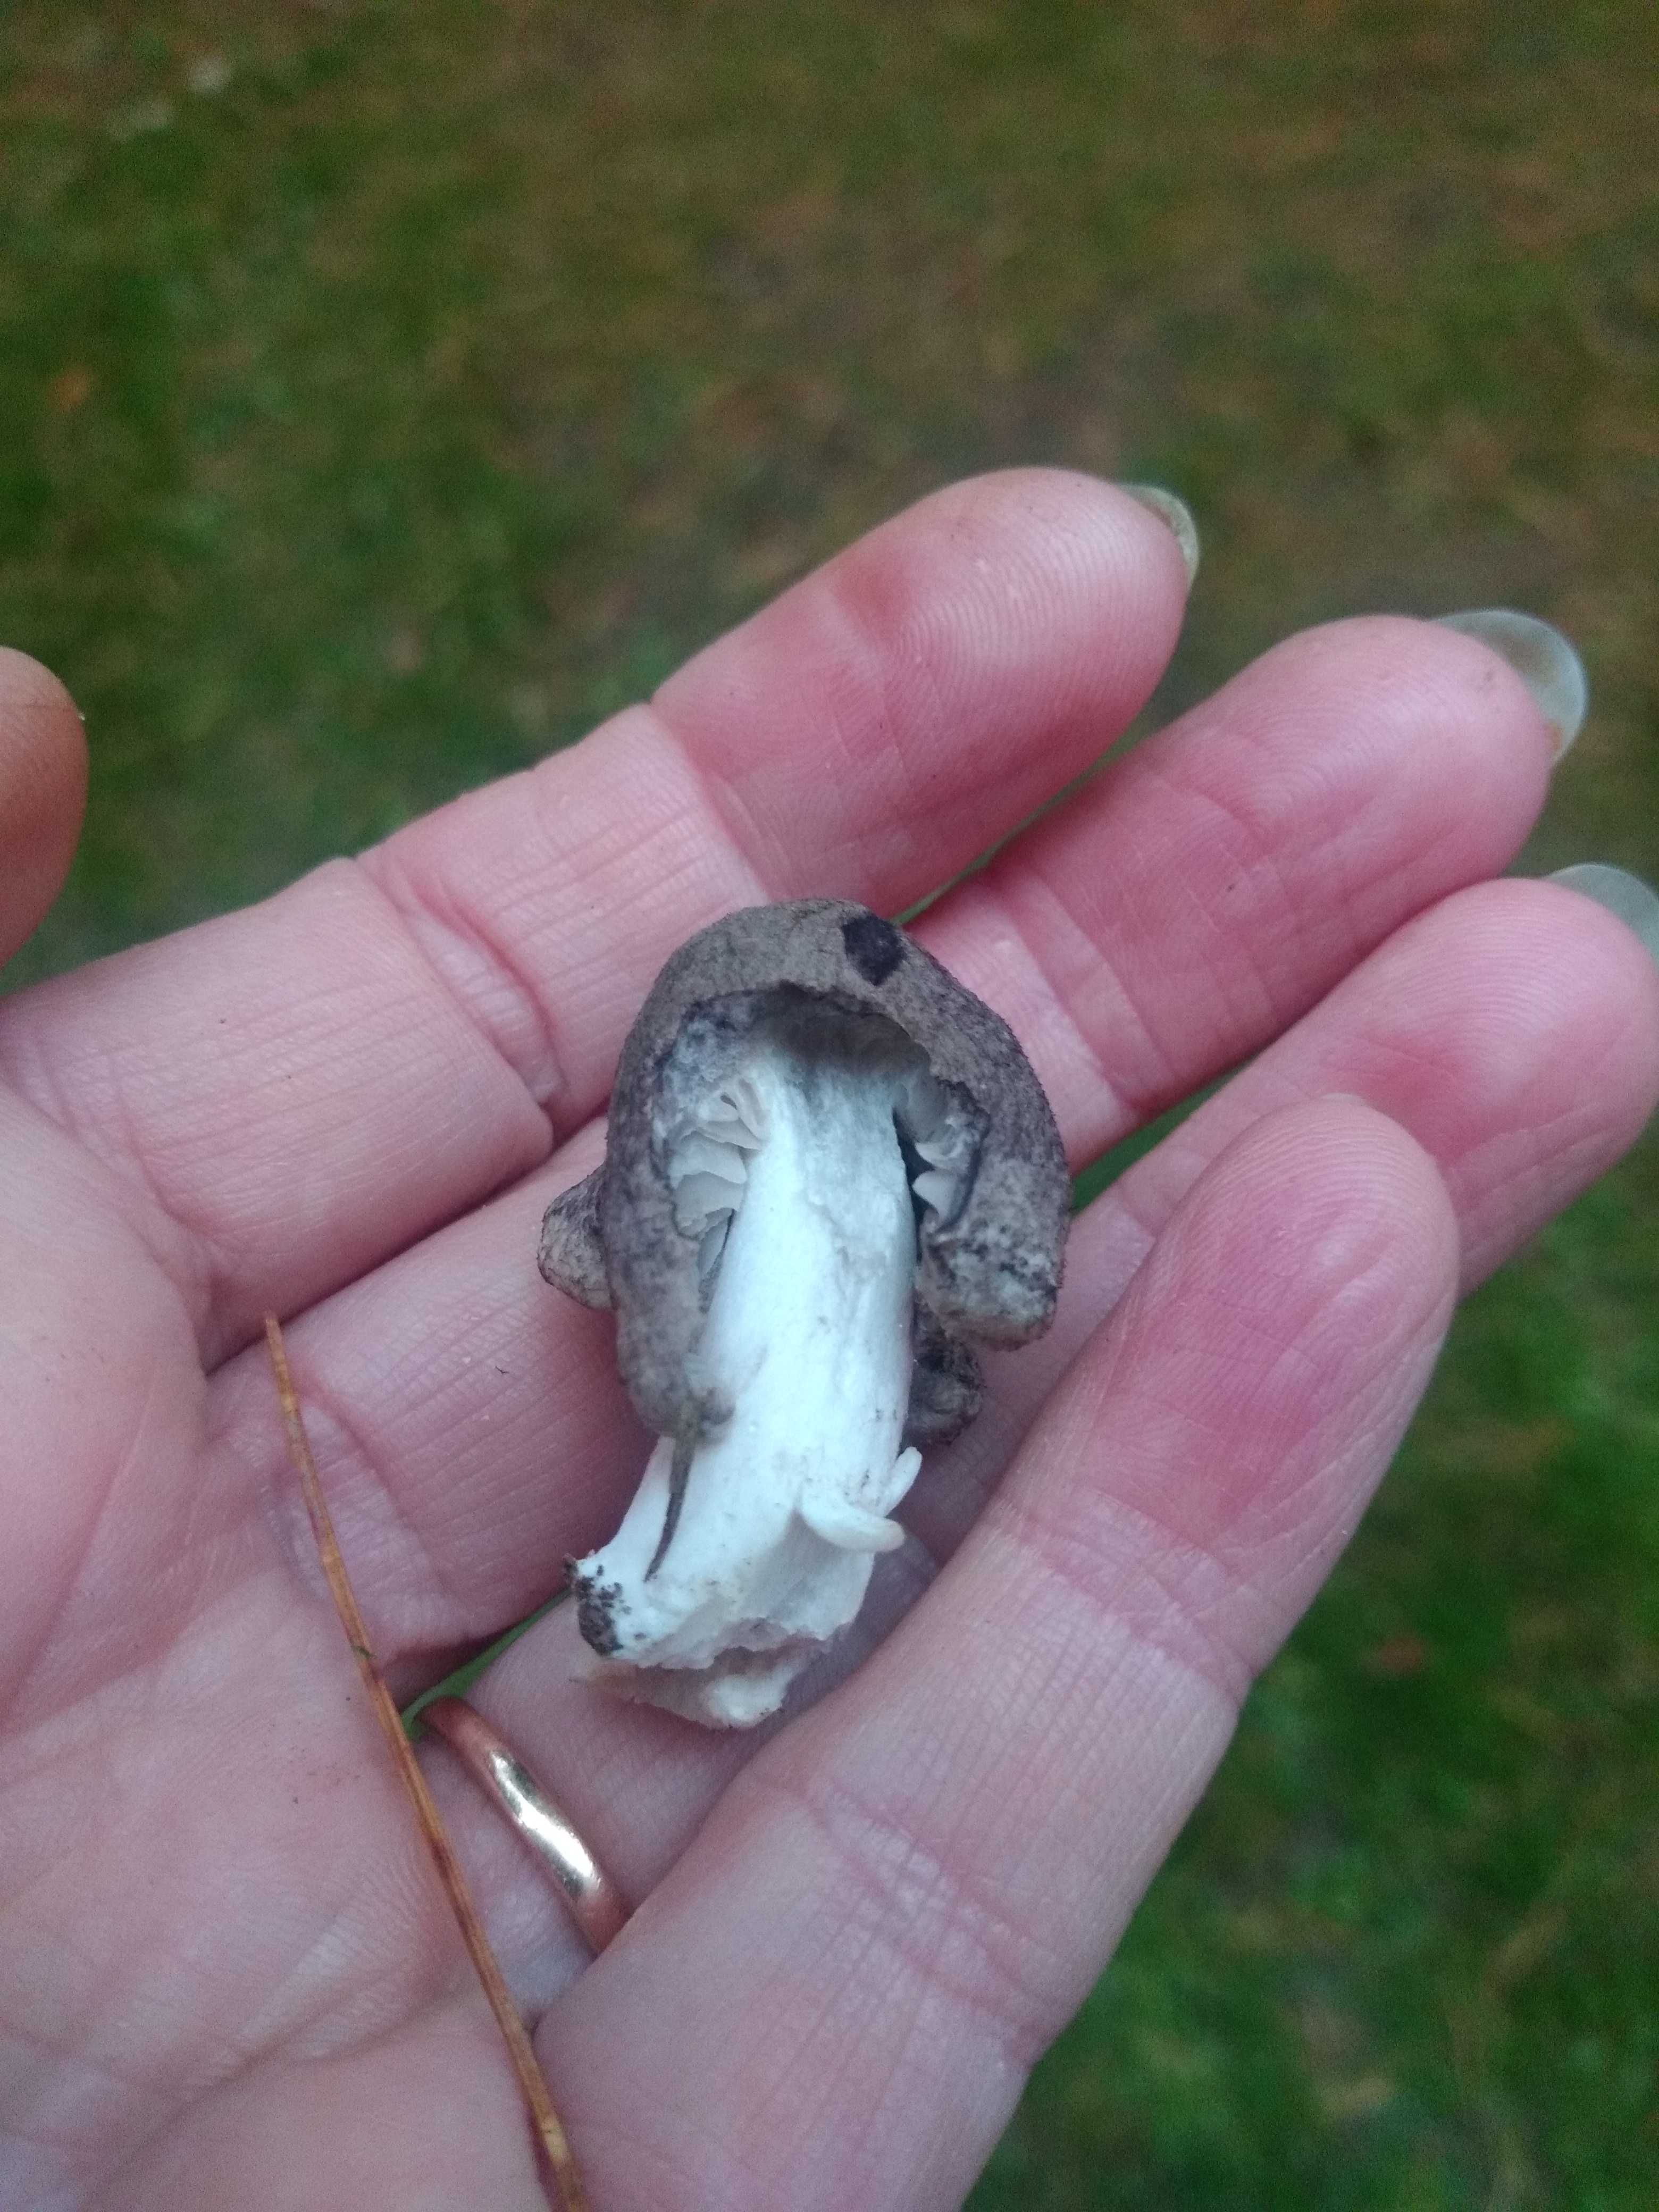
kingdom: Fungi
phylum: Basidiomycota
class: Agaricomycetes
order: Agaricales
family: Tricholomataceae
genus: Tricholoma
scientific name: Tricholoma terreum
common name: jordfarvet ridderhat
